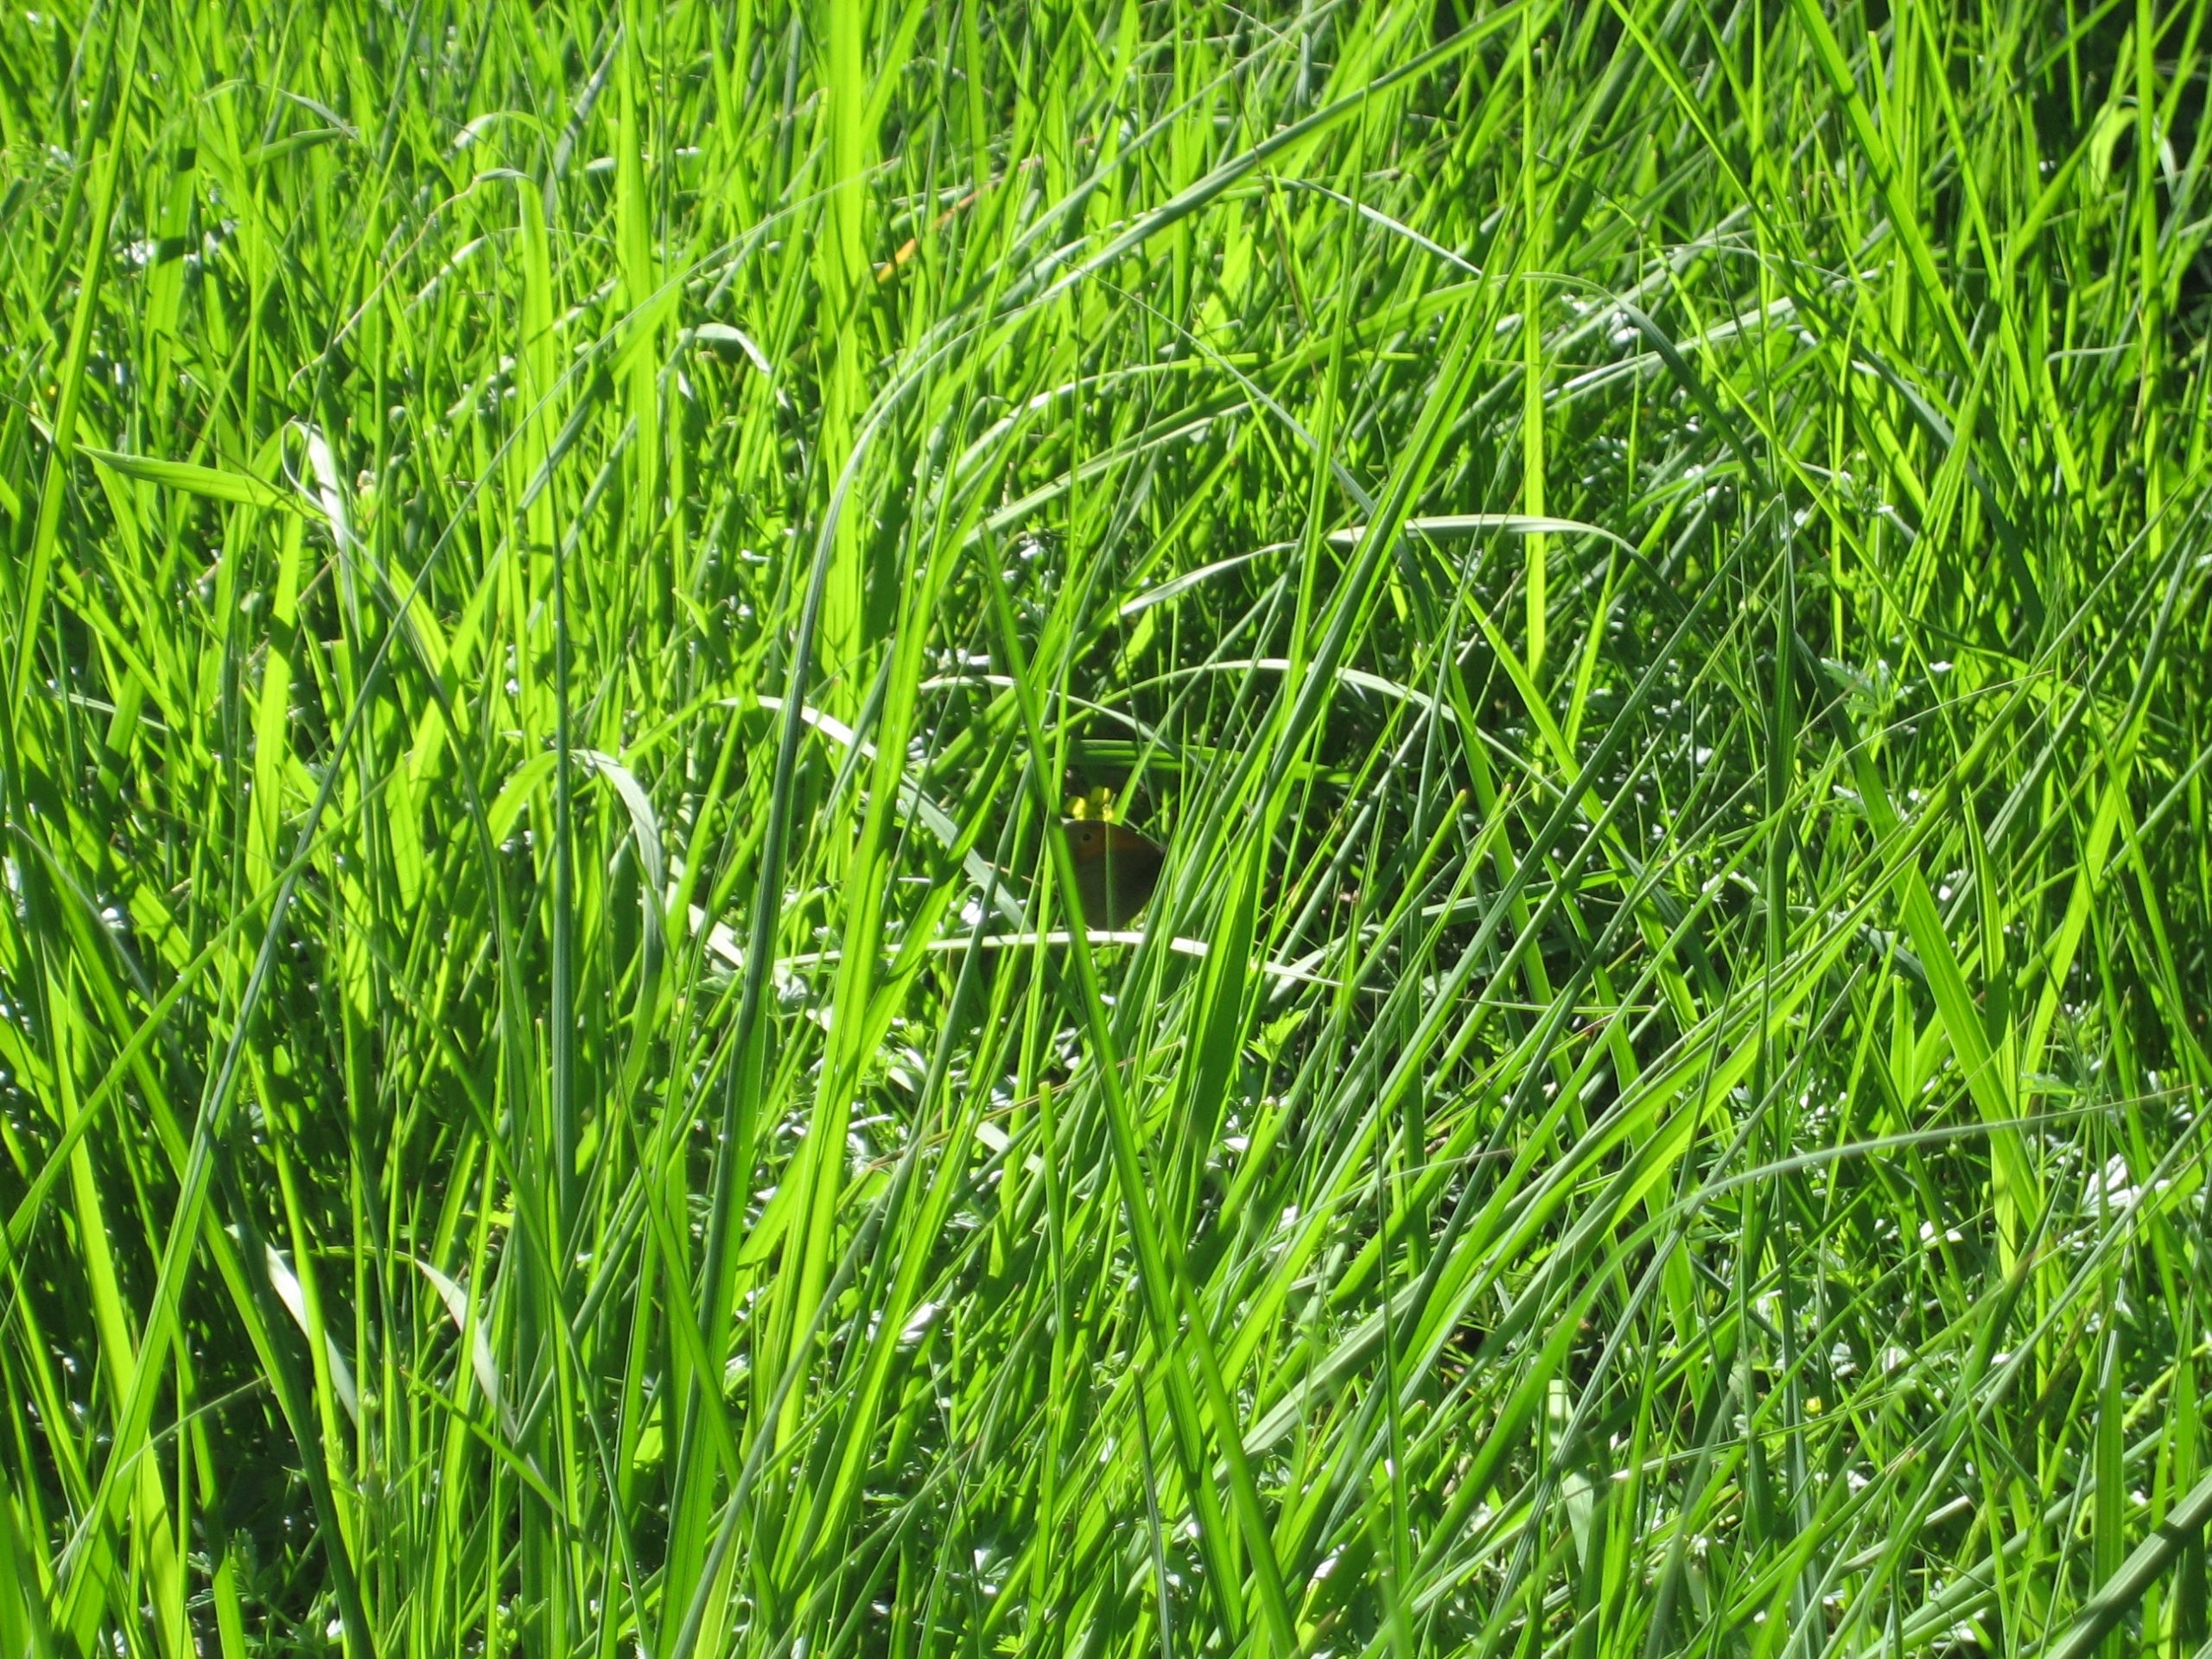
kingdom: Animalia
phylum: Arthropoda
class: Insecta
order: Lepidoptera
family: Nymphalidae
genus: Maniola
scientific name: Maniola jurtina
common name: Græsrandøje
